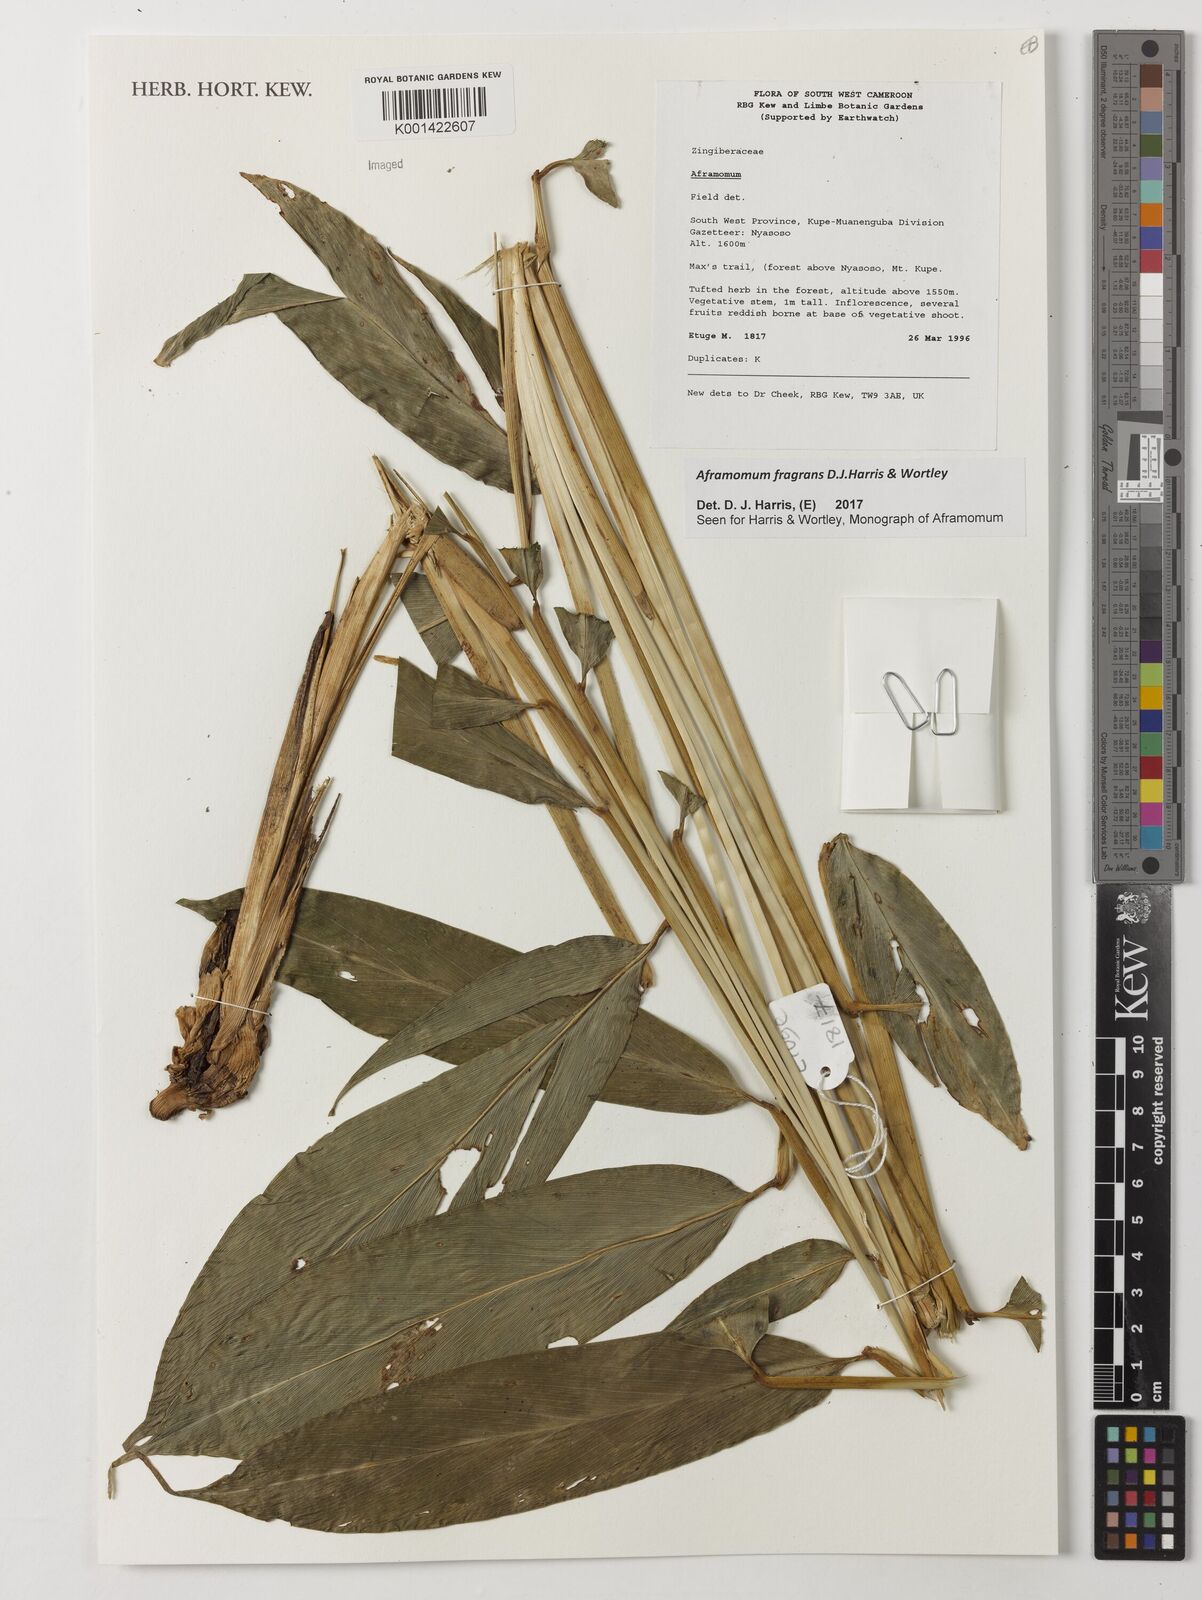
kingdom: Plantae
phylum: Tracheophyta
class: Liliopsida
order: Zingiberales
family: Zingiberaceae
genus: Aframomum
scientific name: Aframomum fragrans
